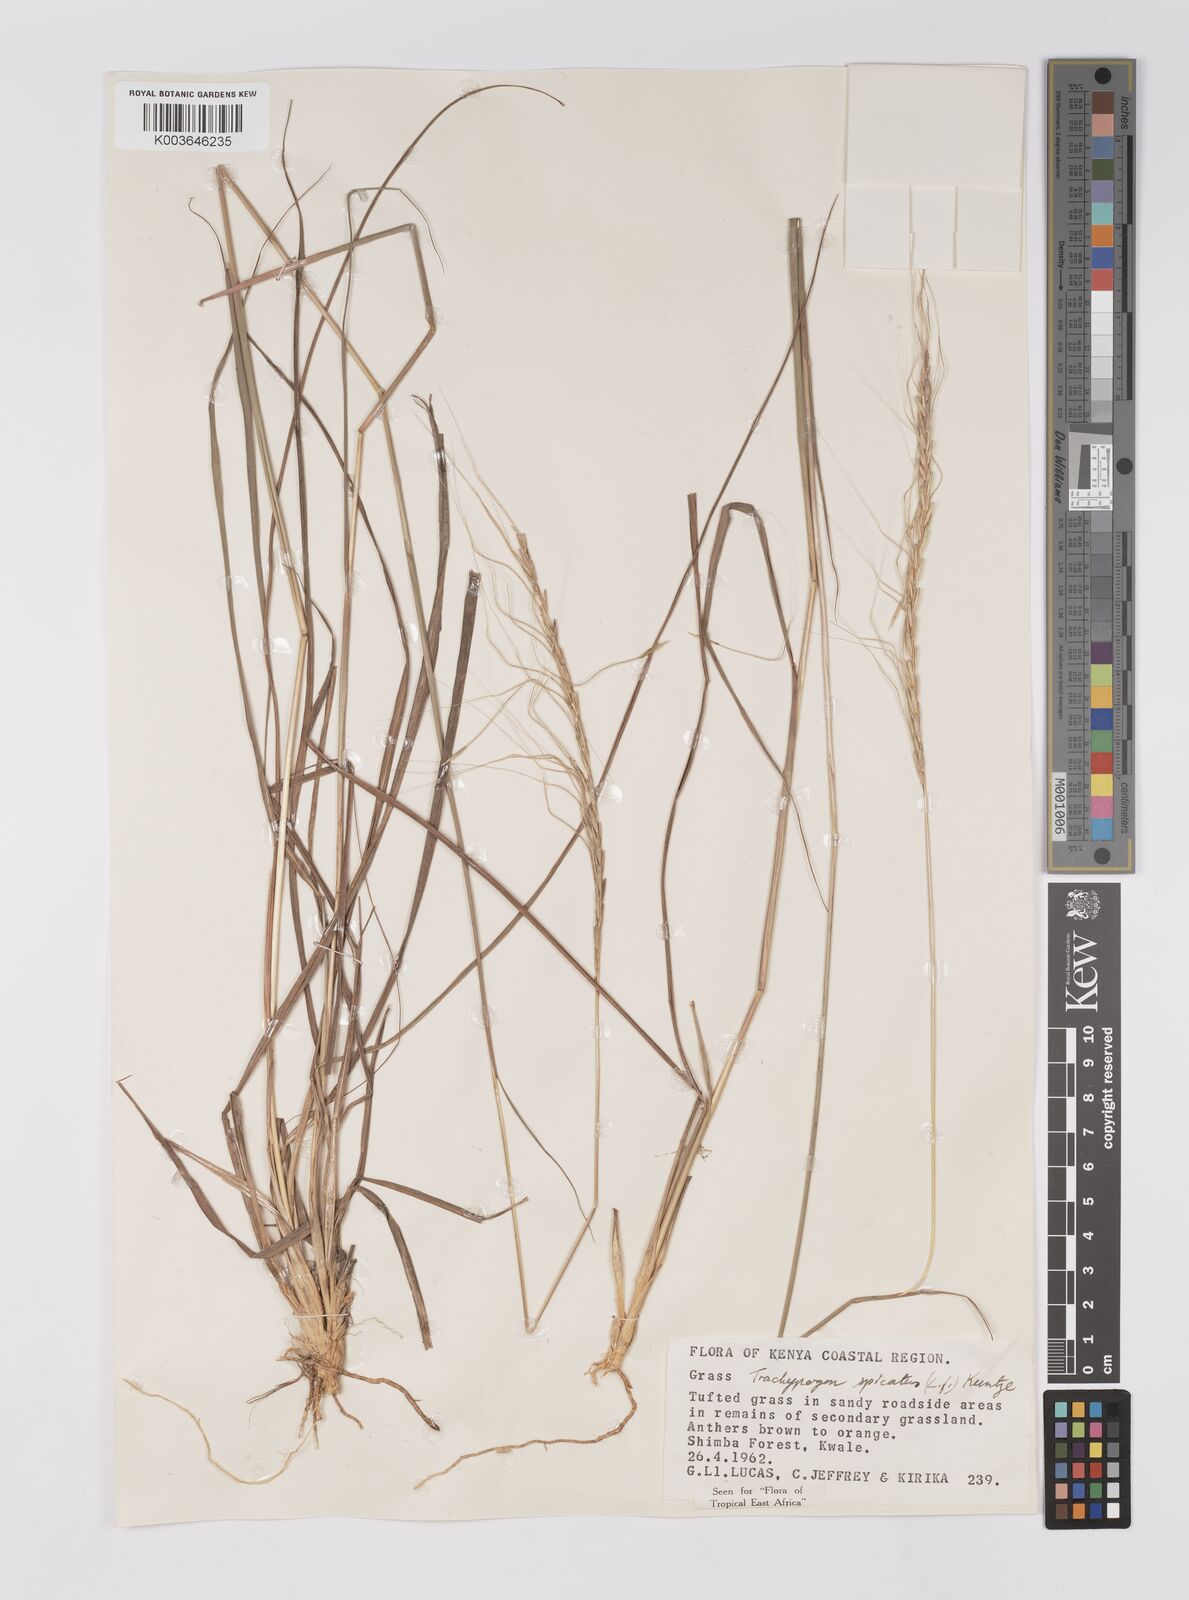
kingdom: Plantae
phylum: Tracheophyta
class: Liliopsida
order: Poales
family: Poaceae
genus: Trachypogon
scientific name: Trachypogon spicatus
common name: Crinkle-awn
